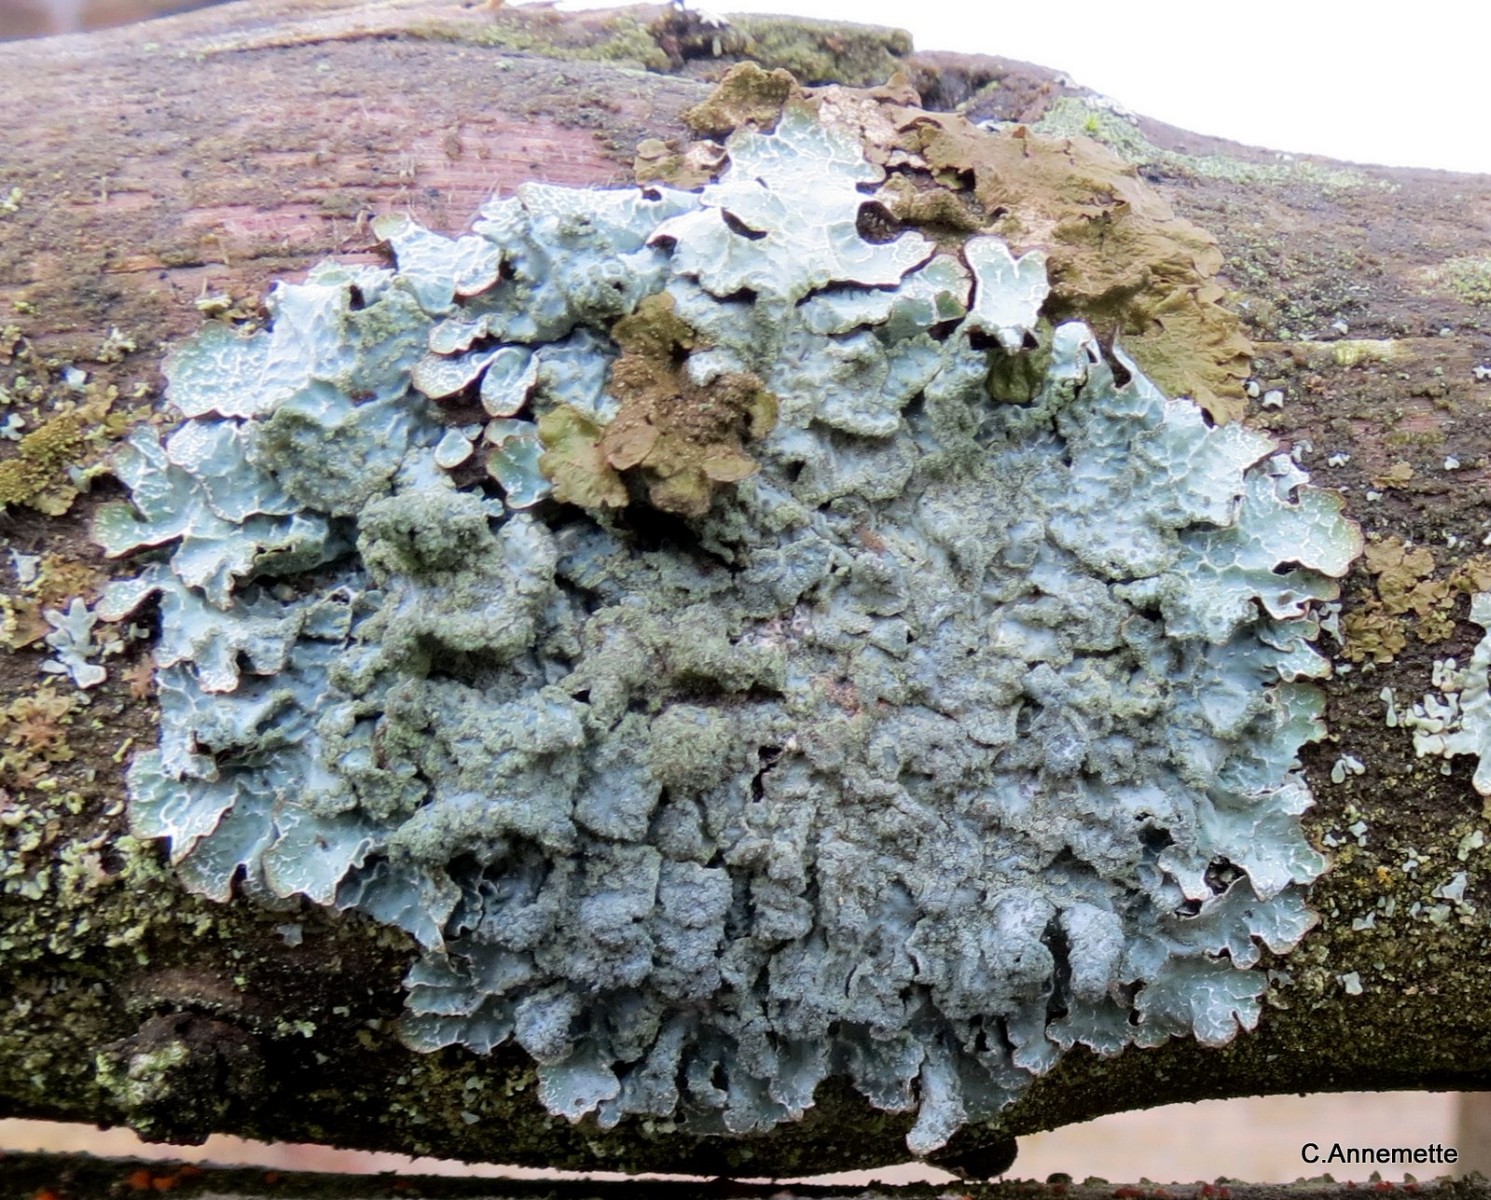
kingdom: Fungi
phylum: Ascomycota
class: Lecanoromycetes
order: Lecanorales
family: Parmeliaceae
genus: Parmelia
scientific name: Parmelia sulcata
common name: rynket skållav
